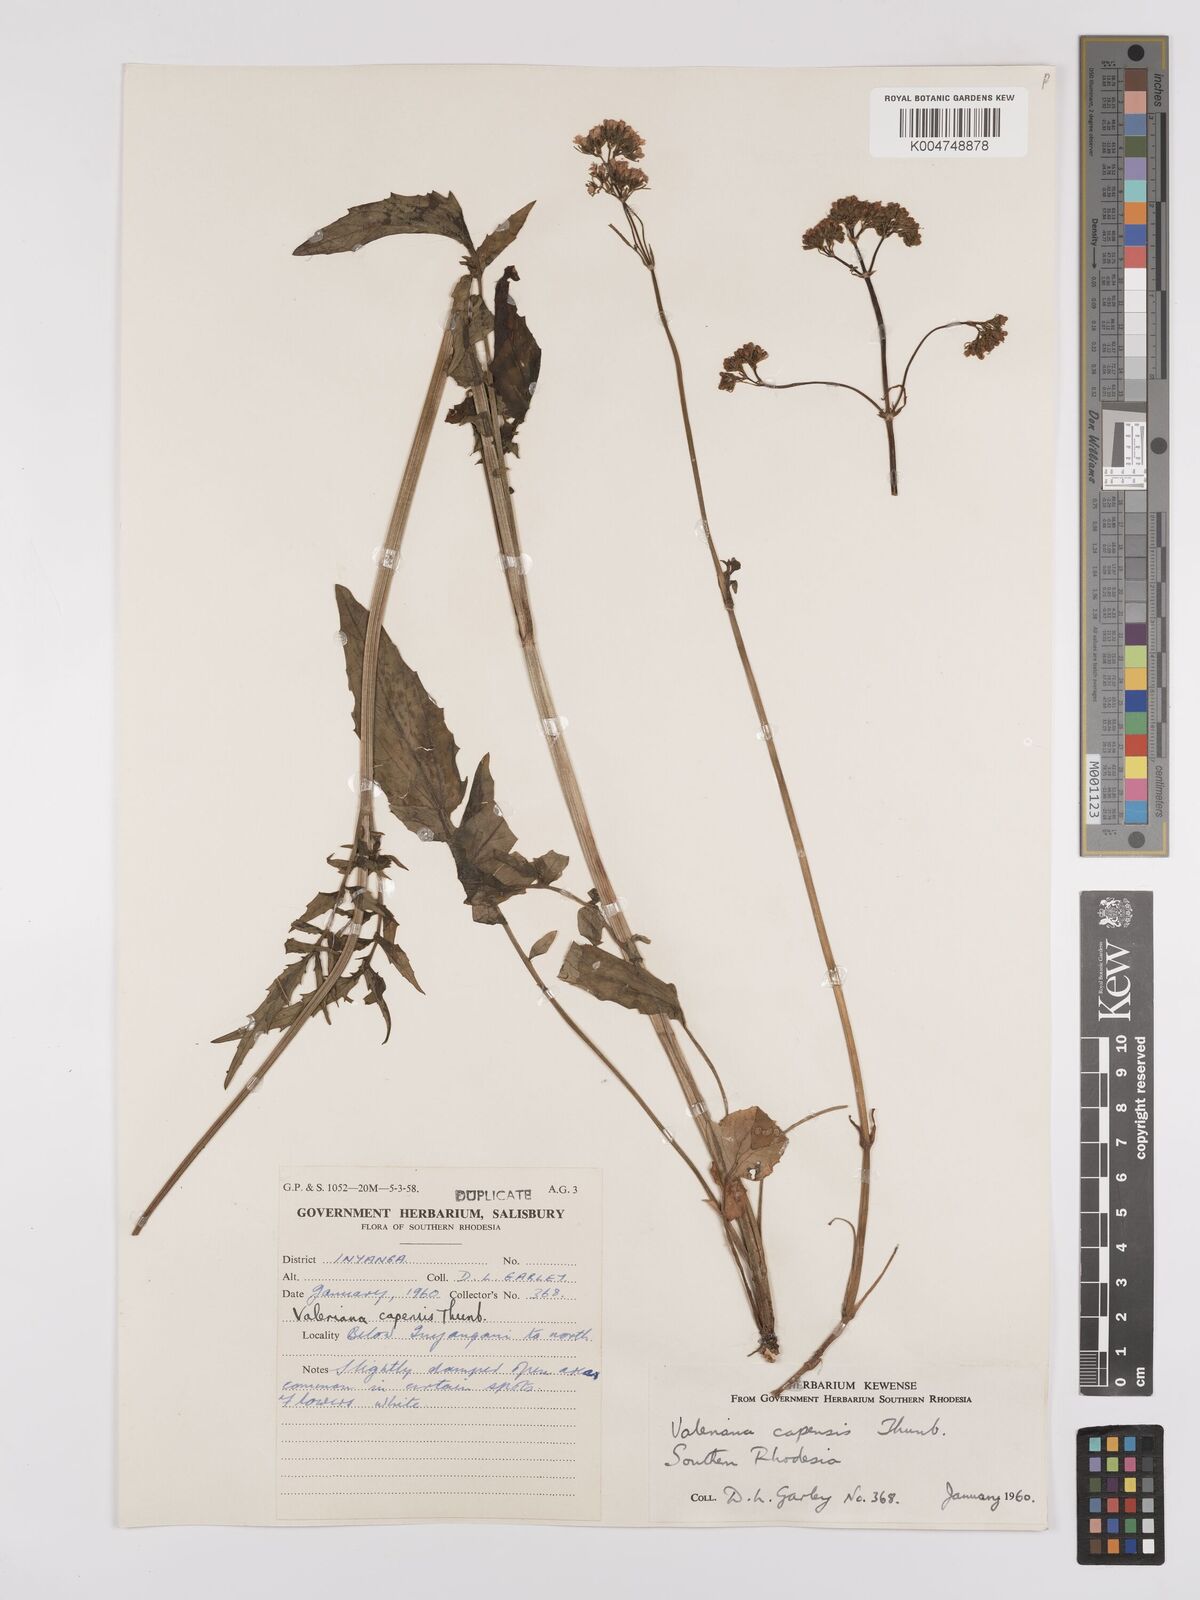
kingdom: Plantae
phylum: Tracheophyta
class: Magnoliopsida
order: Dipsacales
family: Caprifoliaceae
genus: Valeriana
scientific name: Valeriana capensis
